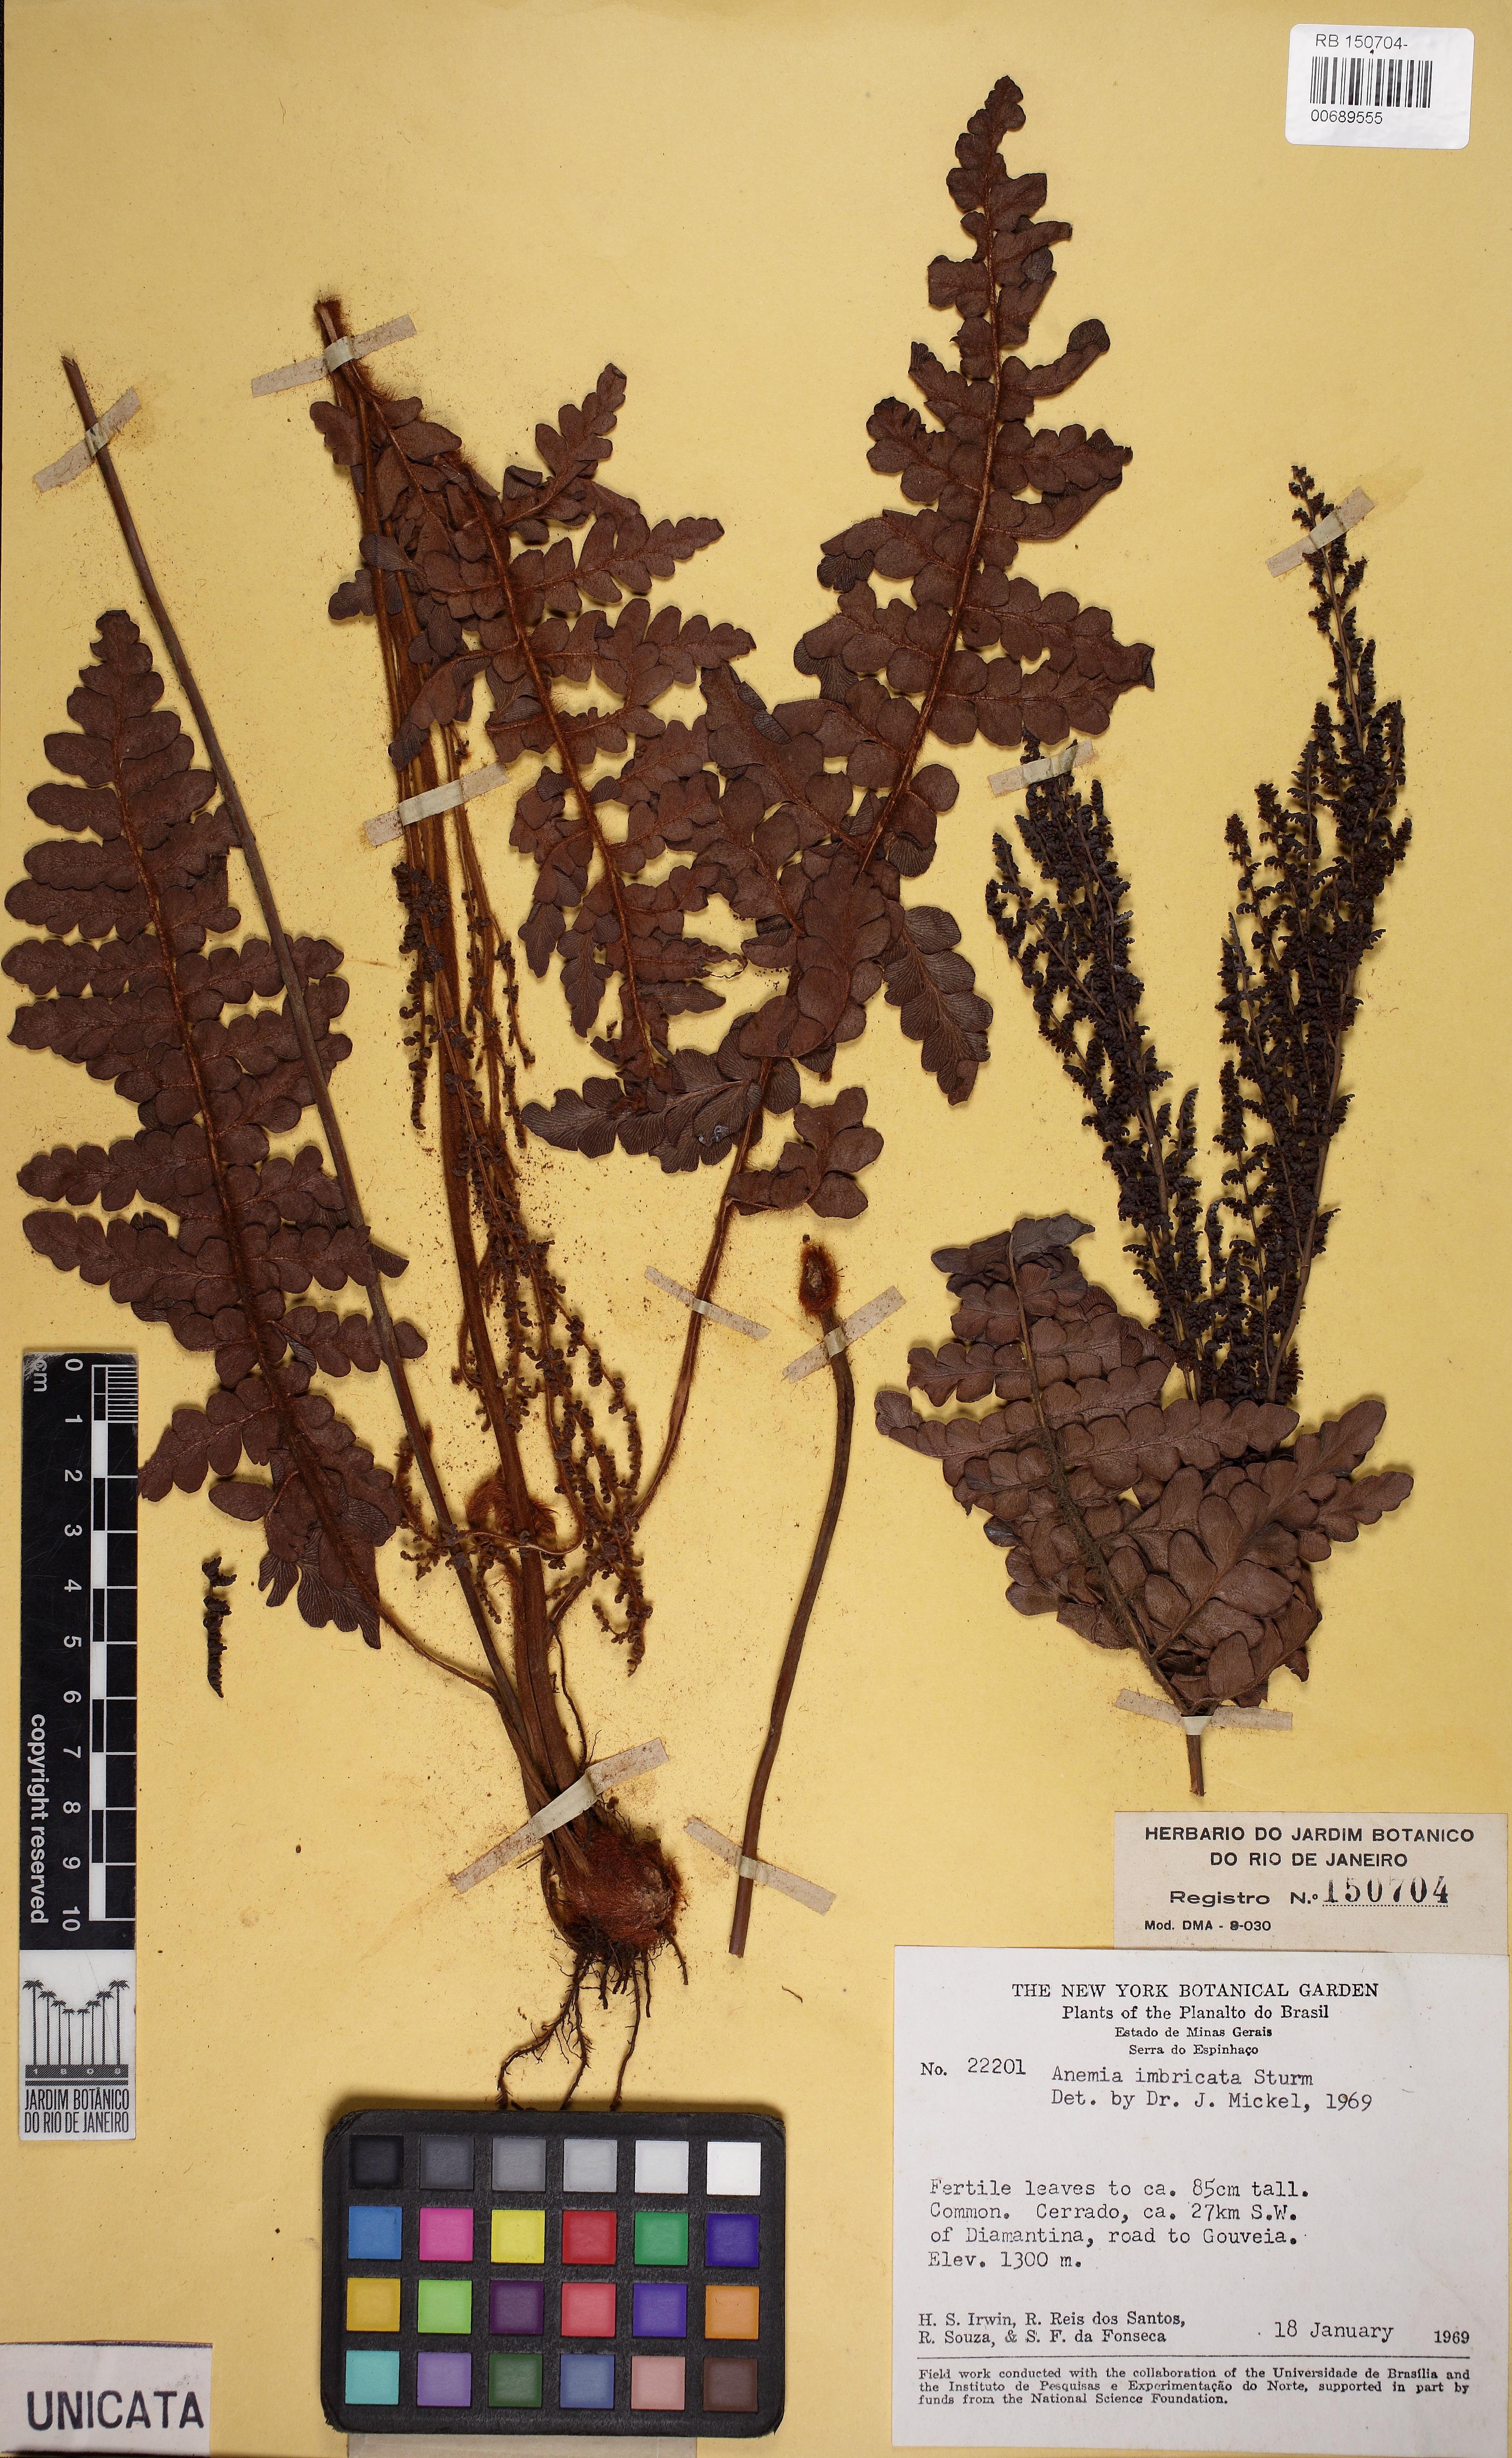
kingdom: Plantae
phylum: Tracheophyta
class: Polypodiopsida
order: Schizaeales
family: Anemiaceae
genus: Anemia
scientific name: Anemia imbricata
